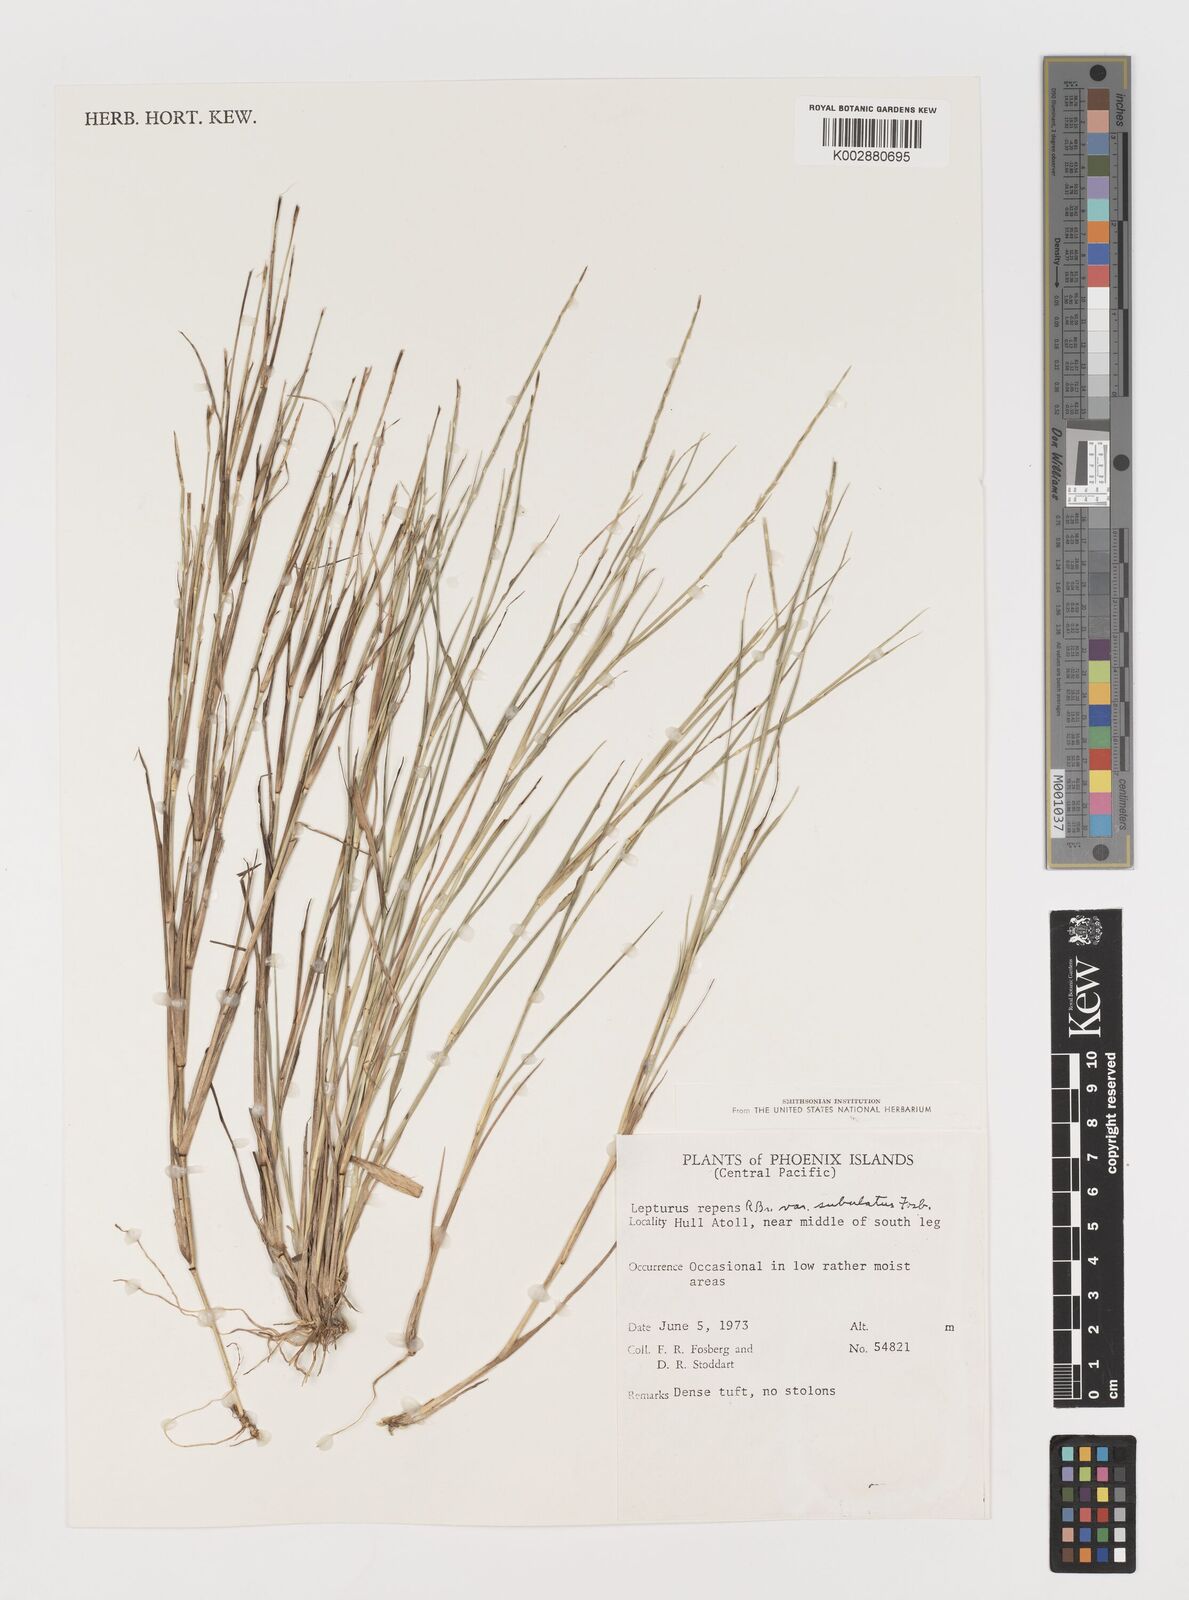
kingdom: Plantae
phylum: Tracheophyta
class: Liliopsida
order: Poales
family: Poaceae
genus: Lepturus
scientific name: Lepturus repens
